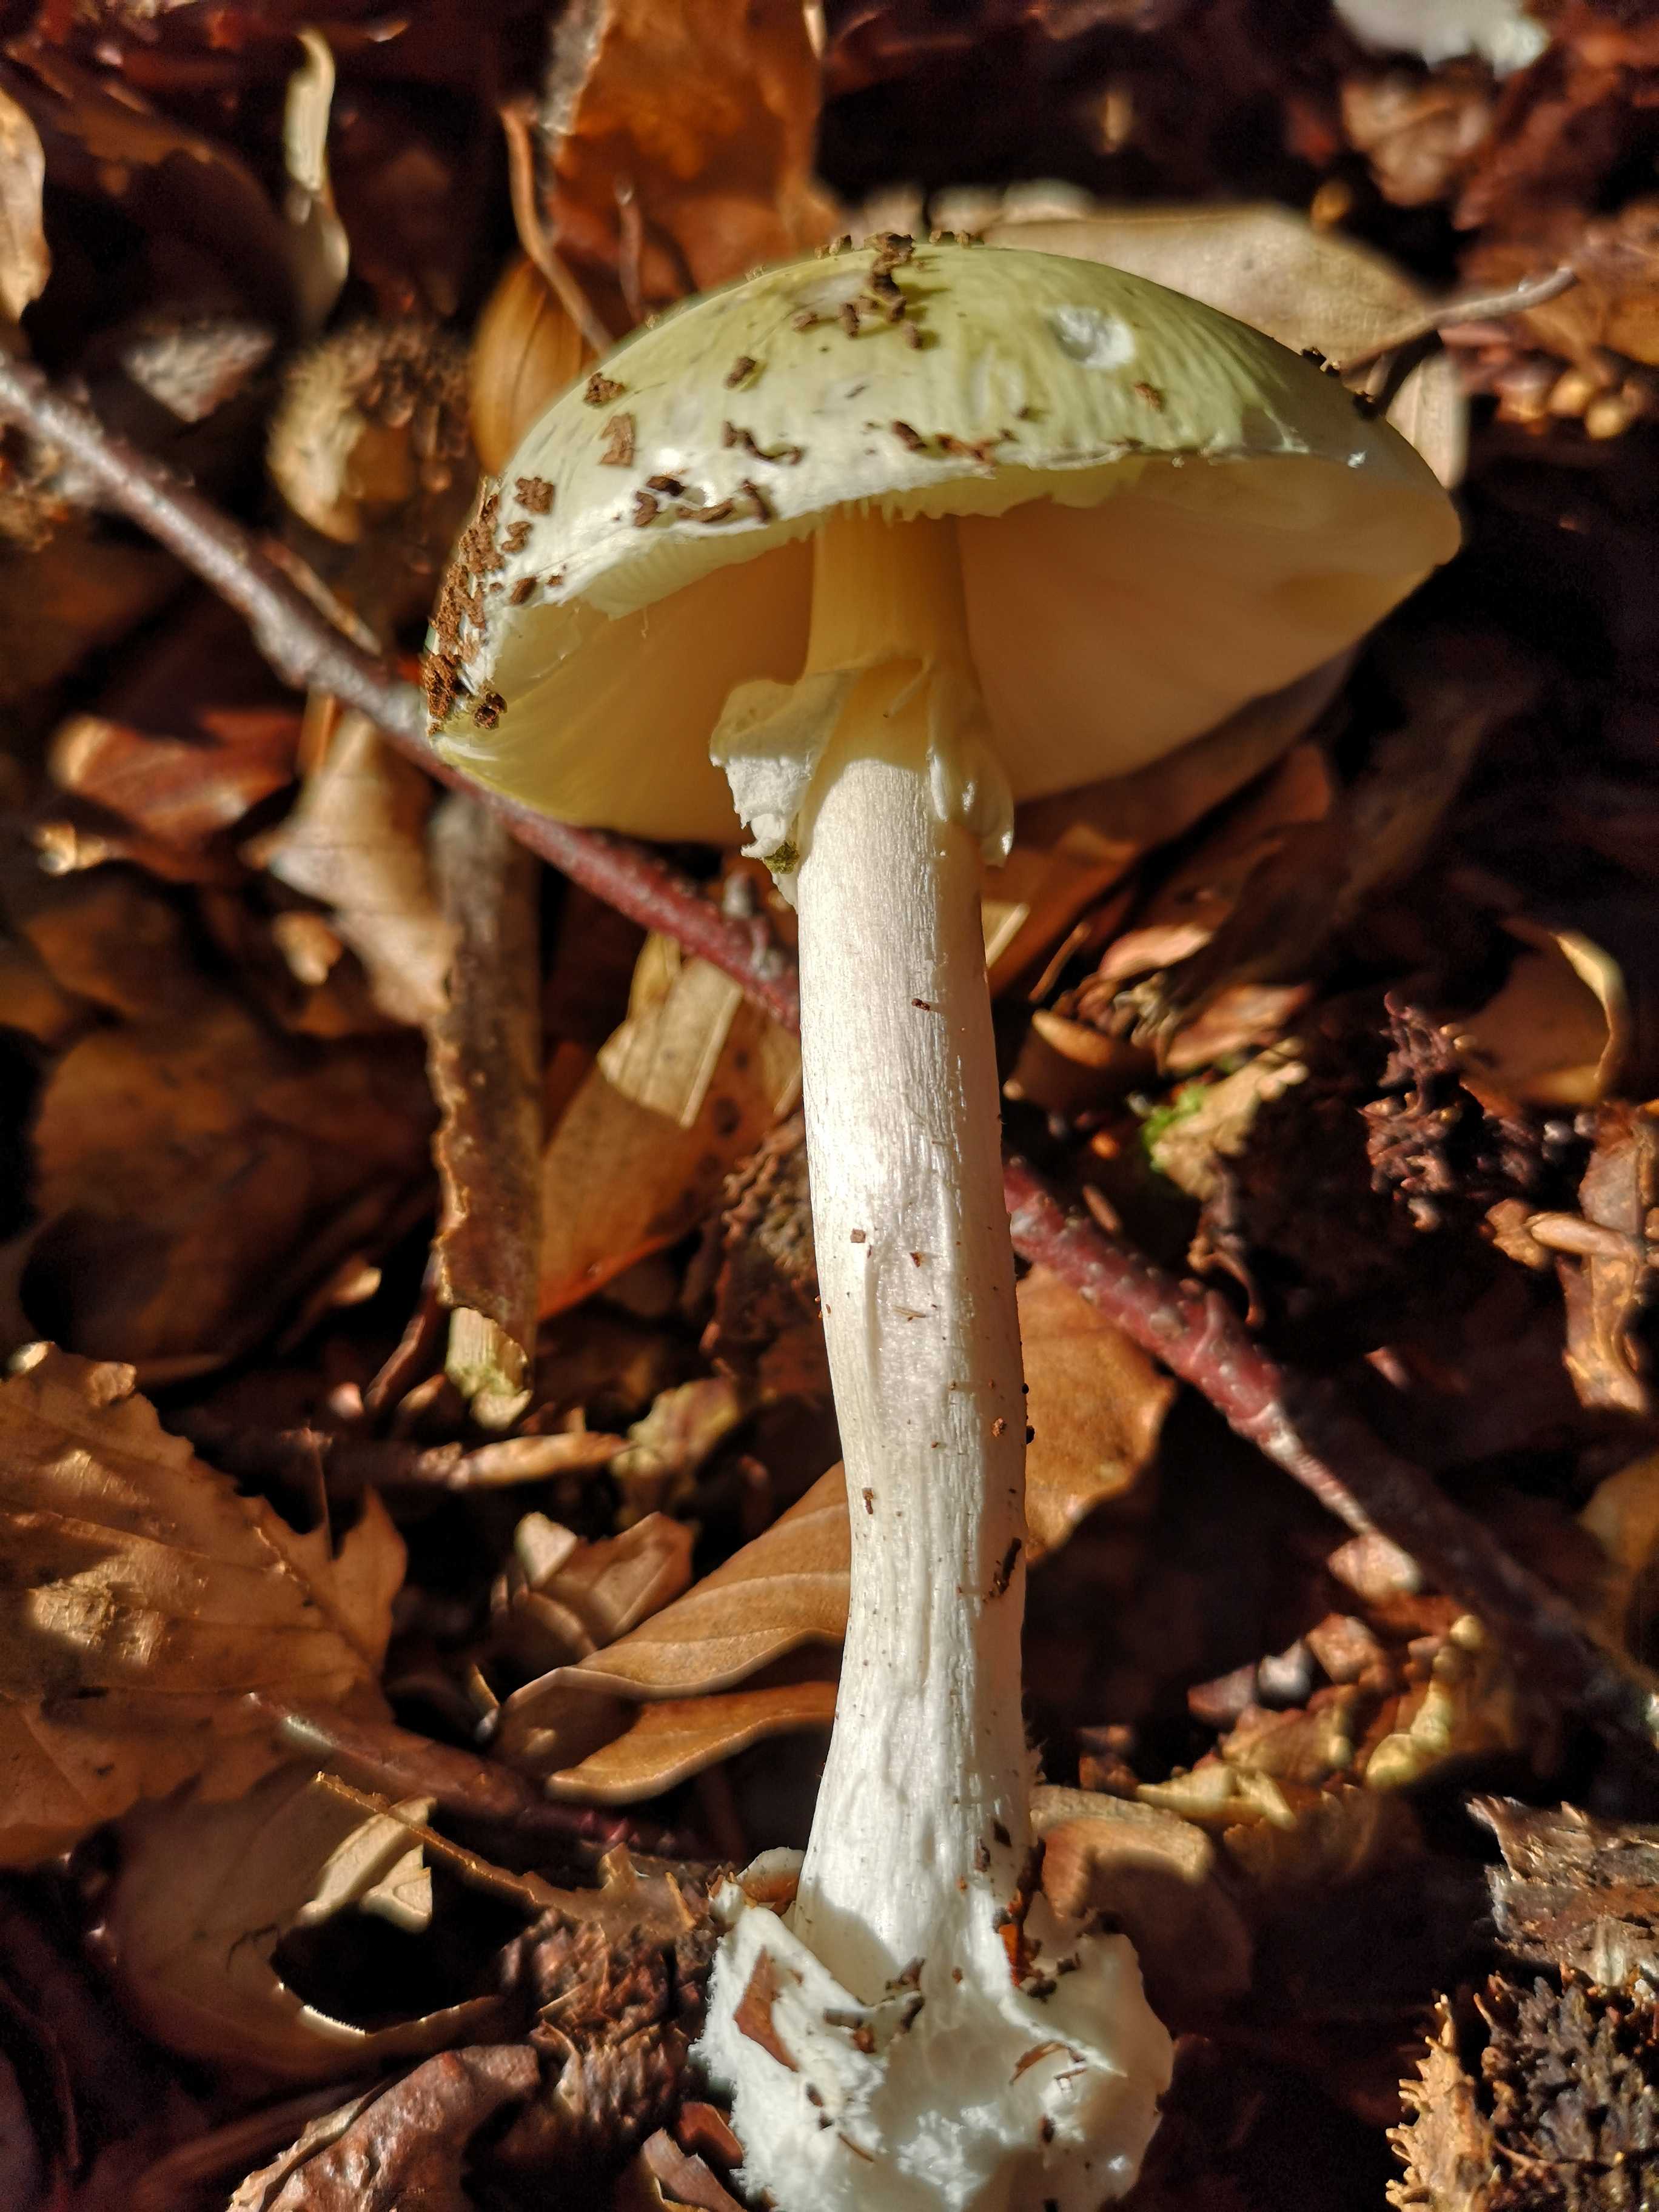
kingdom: Fungi
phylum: Basidiomycota
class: Agaricomycetes
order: Agaricales
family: Amanitaceae
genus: Amanita
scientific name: Amanita phalloides
